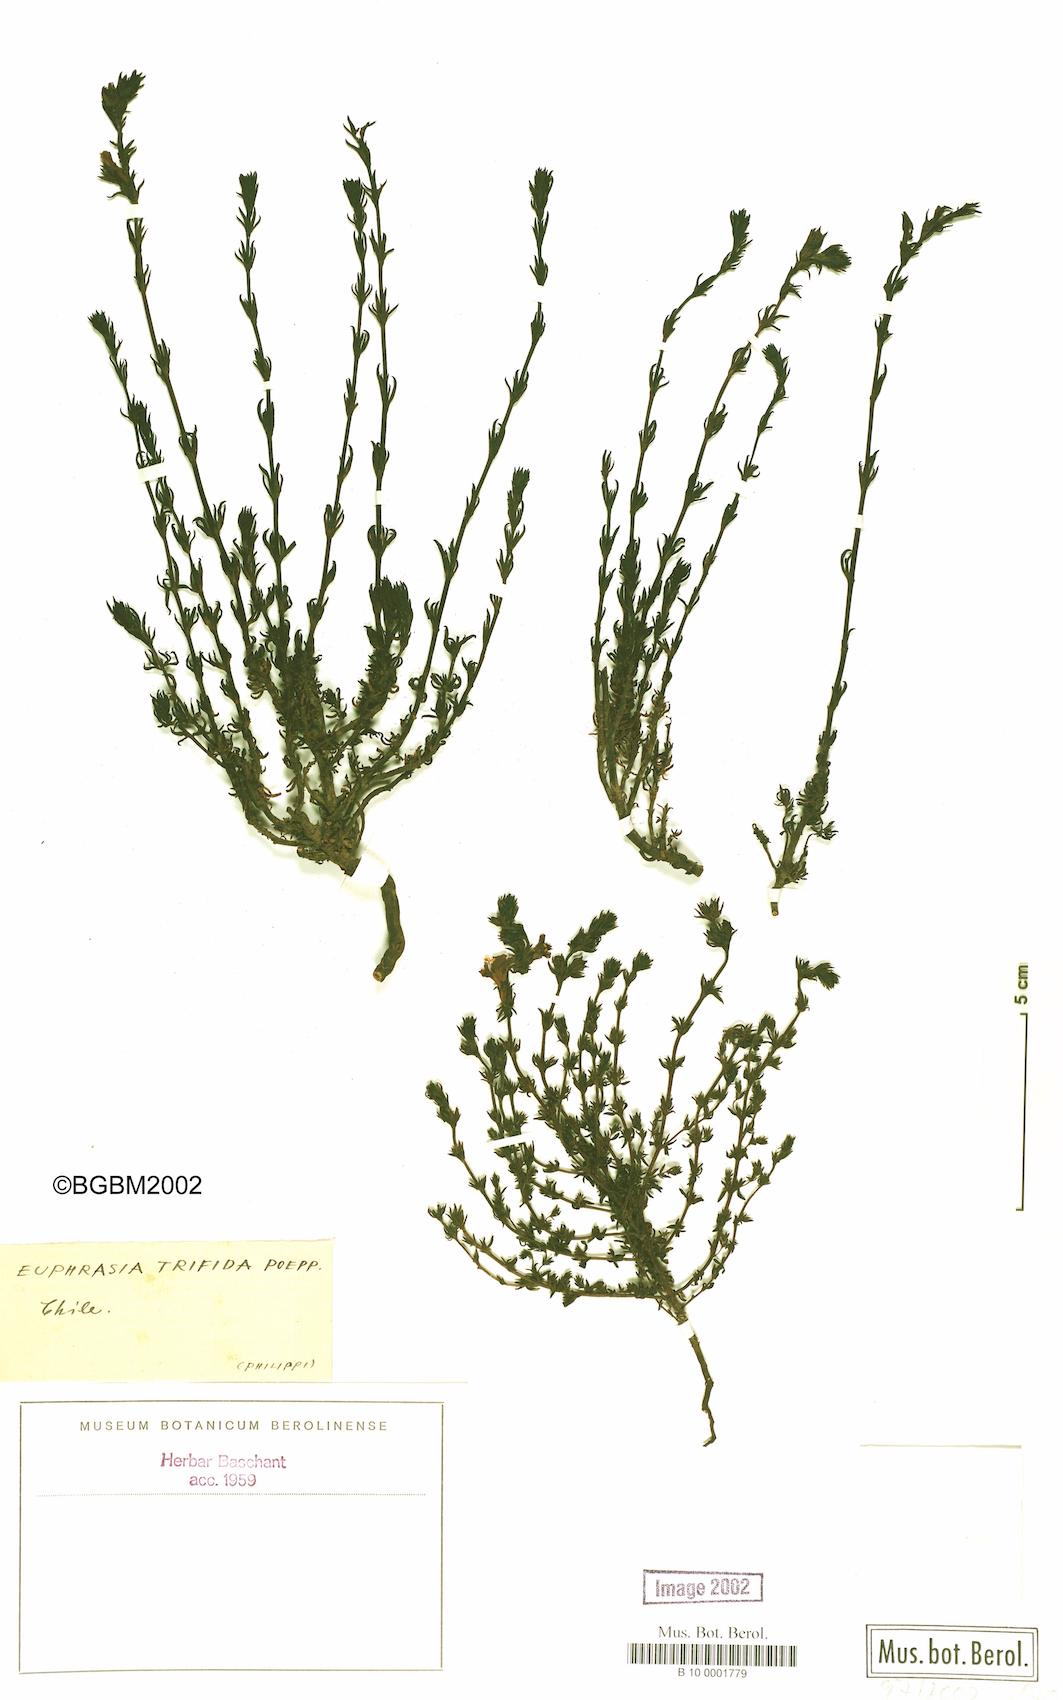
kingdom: Plantae
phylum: Tracheophyta
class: Magnoliopsida
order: Lamiales
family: Orobanchaceae
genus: Euphrasia
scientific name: Euphrasia trifida
